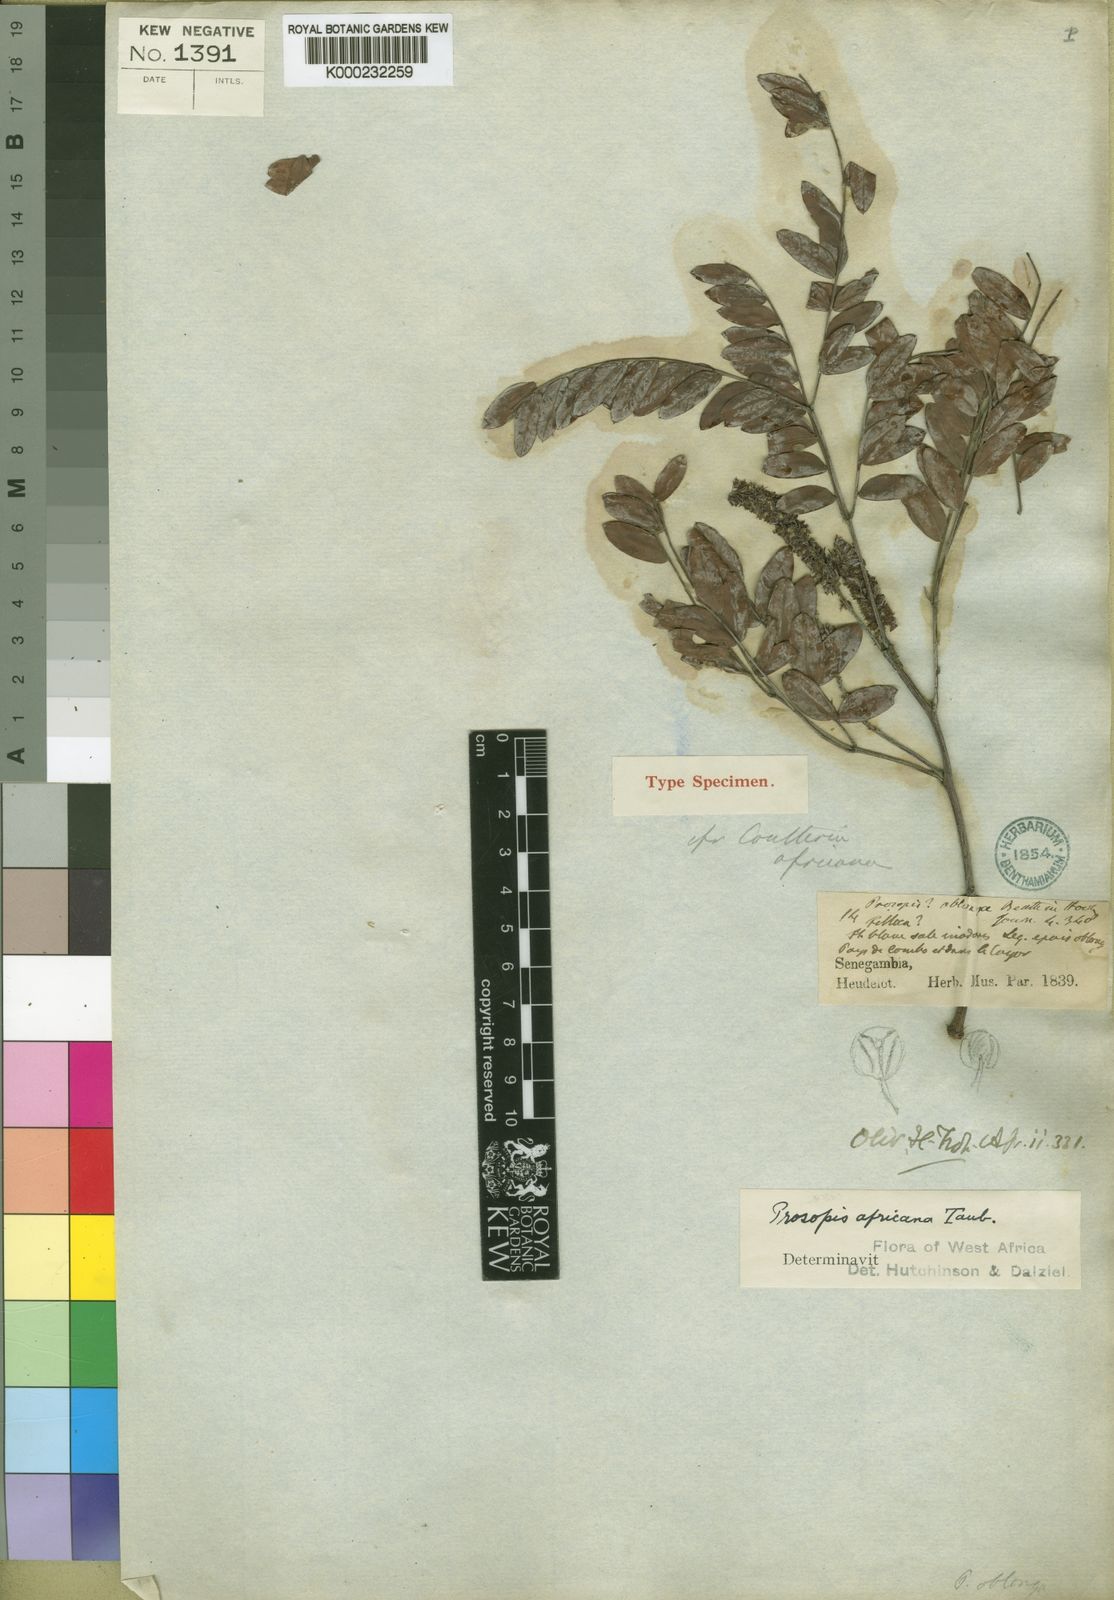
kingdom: Plantae
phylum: Tracheophyta
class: Magnoliopsida
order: Fabales
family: Fabaceae
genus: Prosopis
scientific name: Prosopis africana
